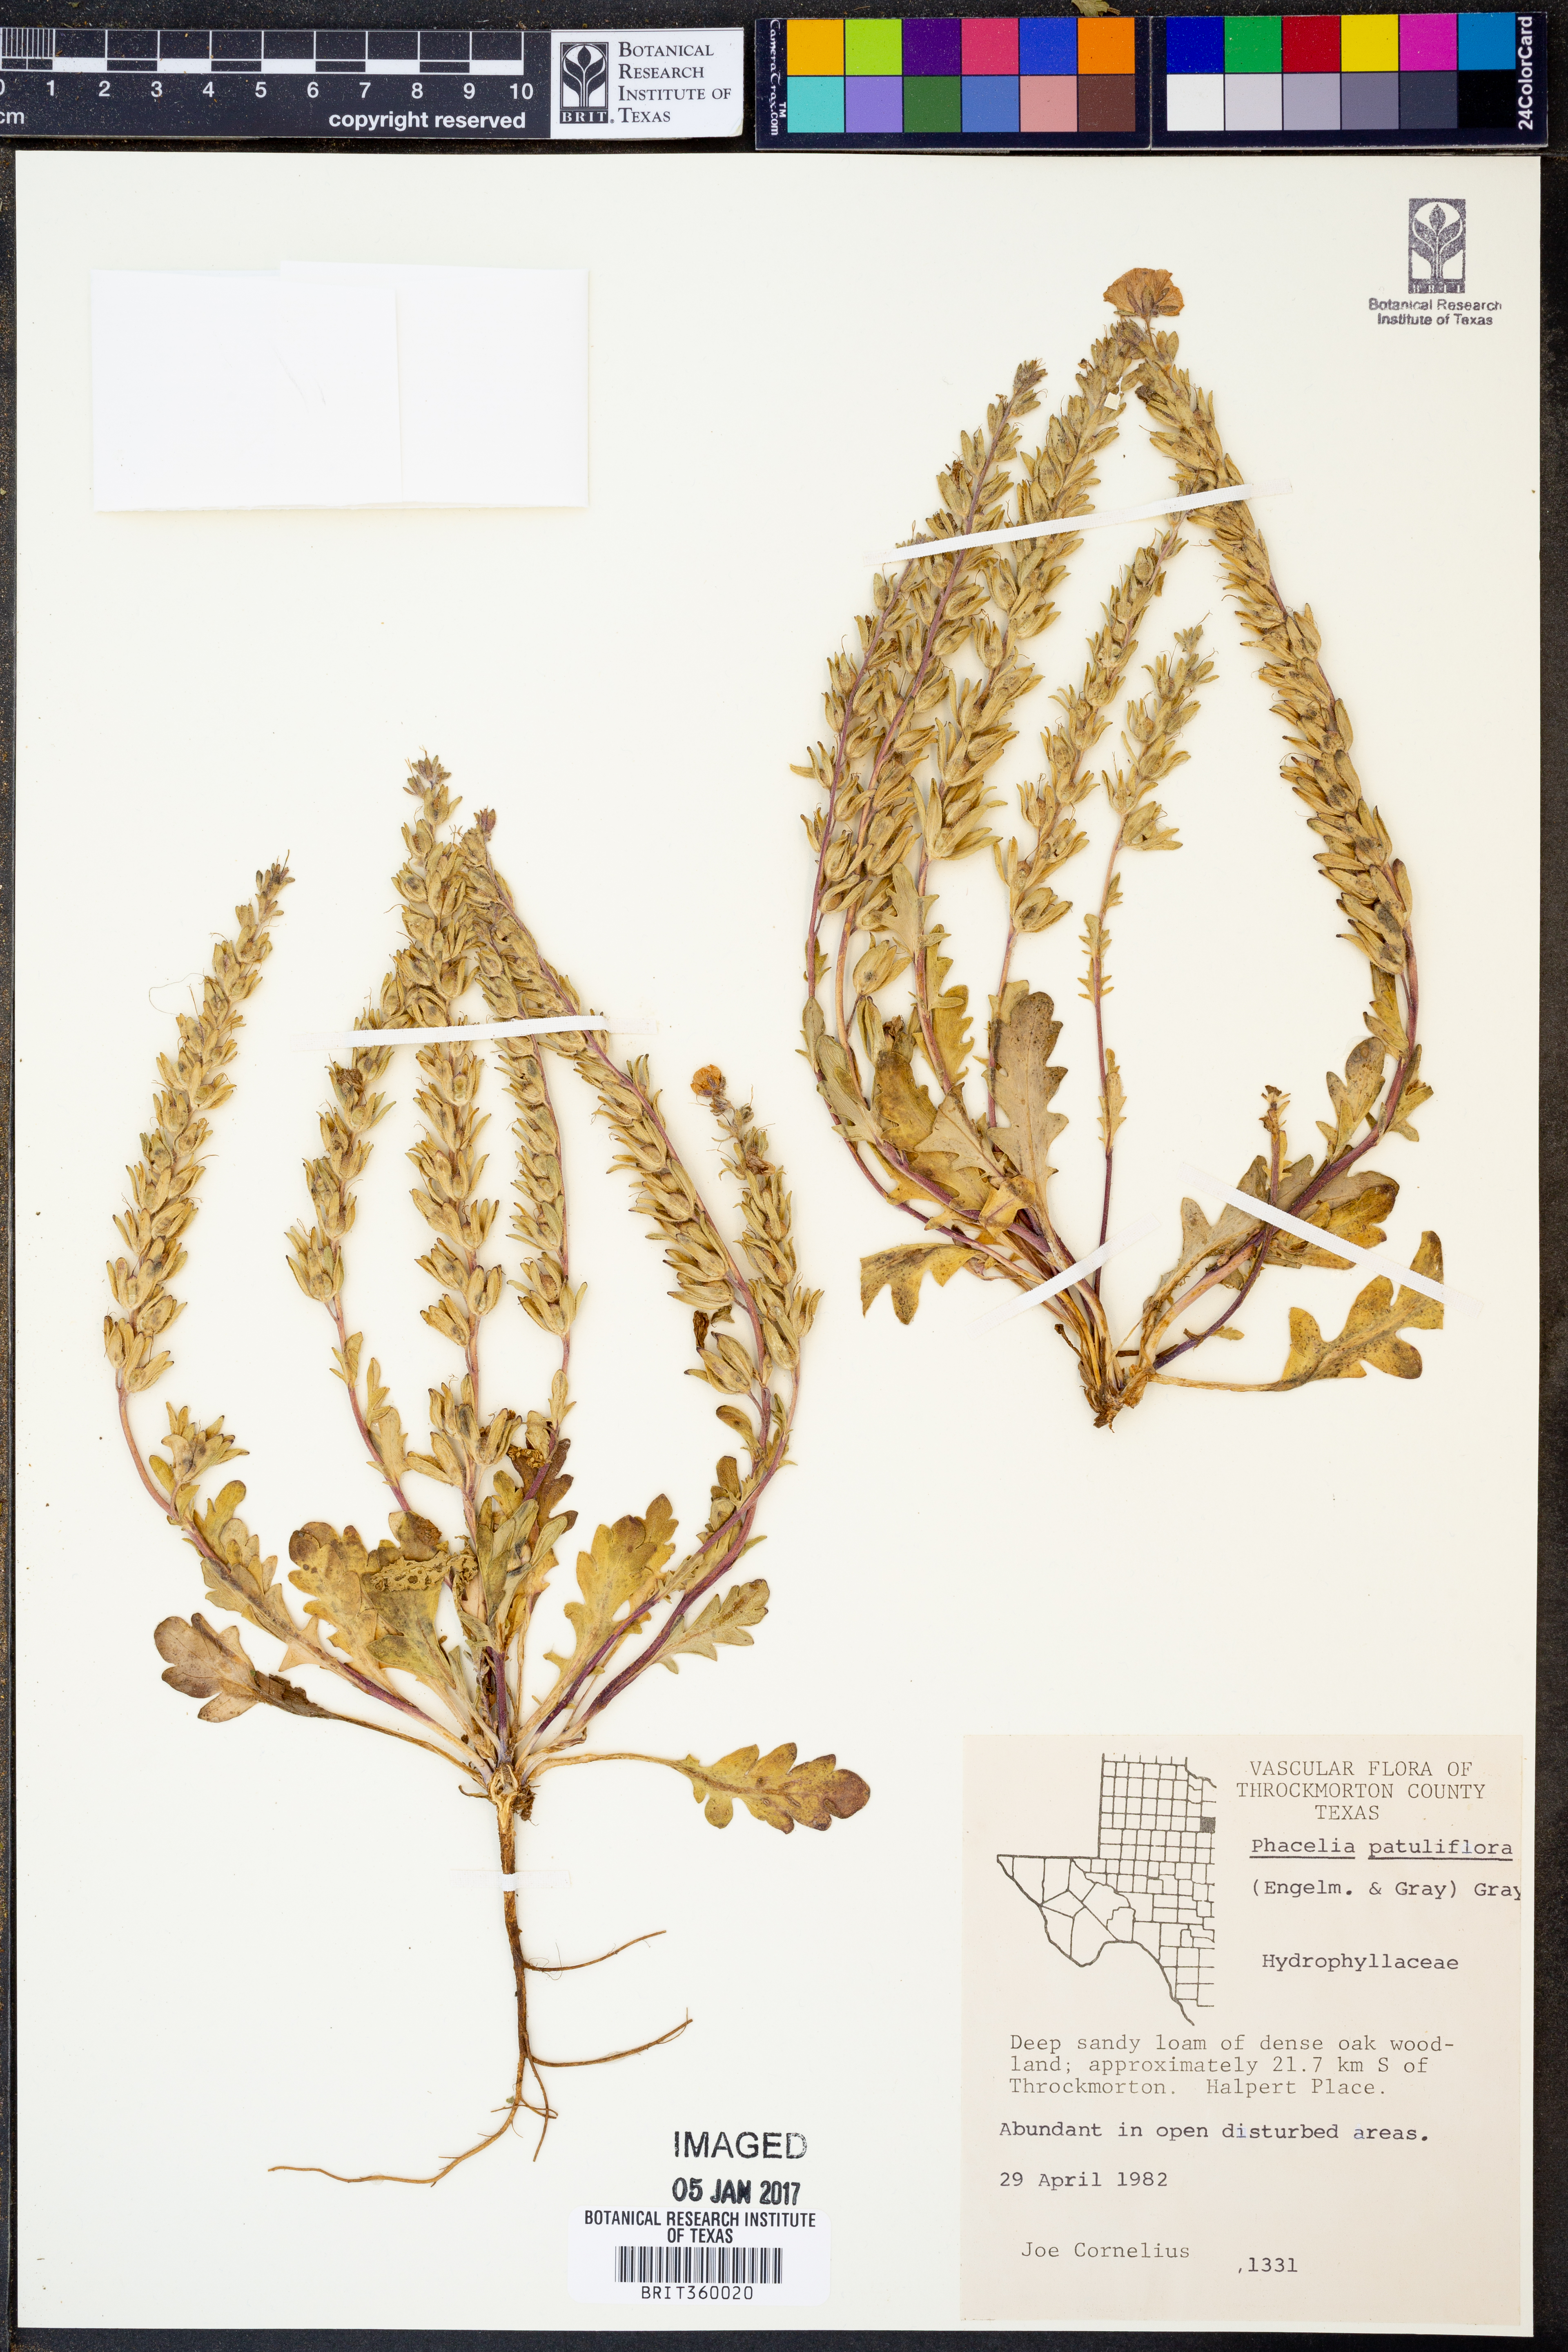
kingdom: Plantae
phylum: Tracheophyta
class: Magnoliopsida
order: Boraginales
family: Hydrophyllaceae
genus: Phacelia
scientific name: Phacelia patuliflora
